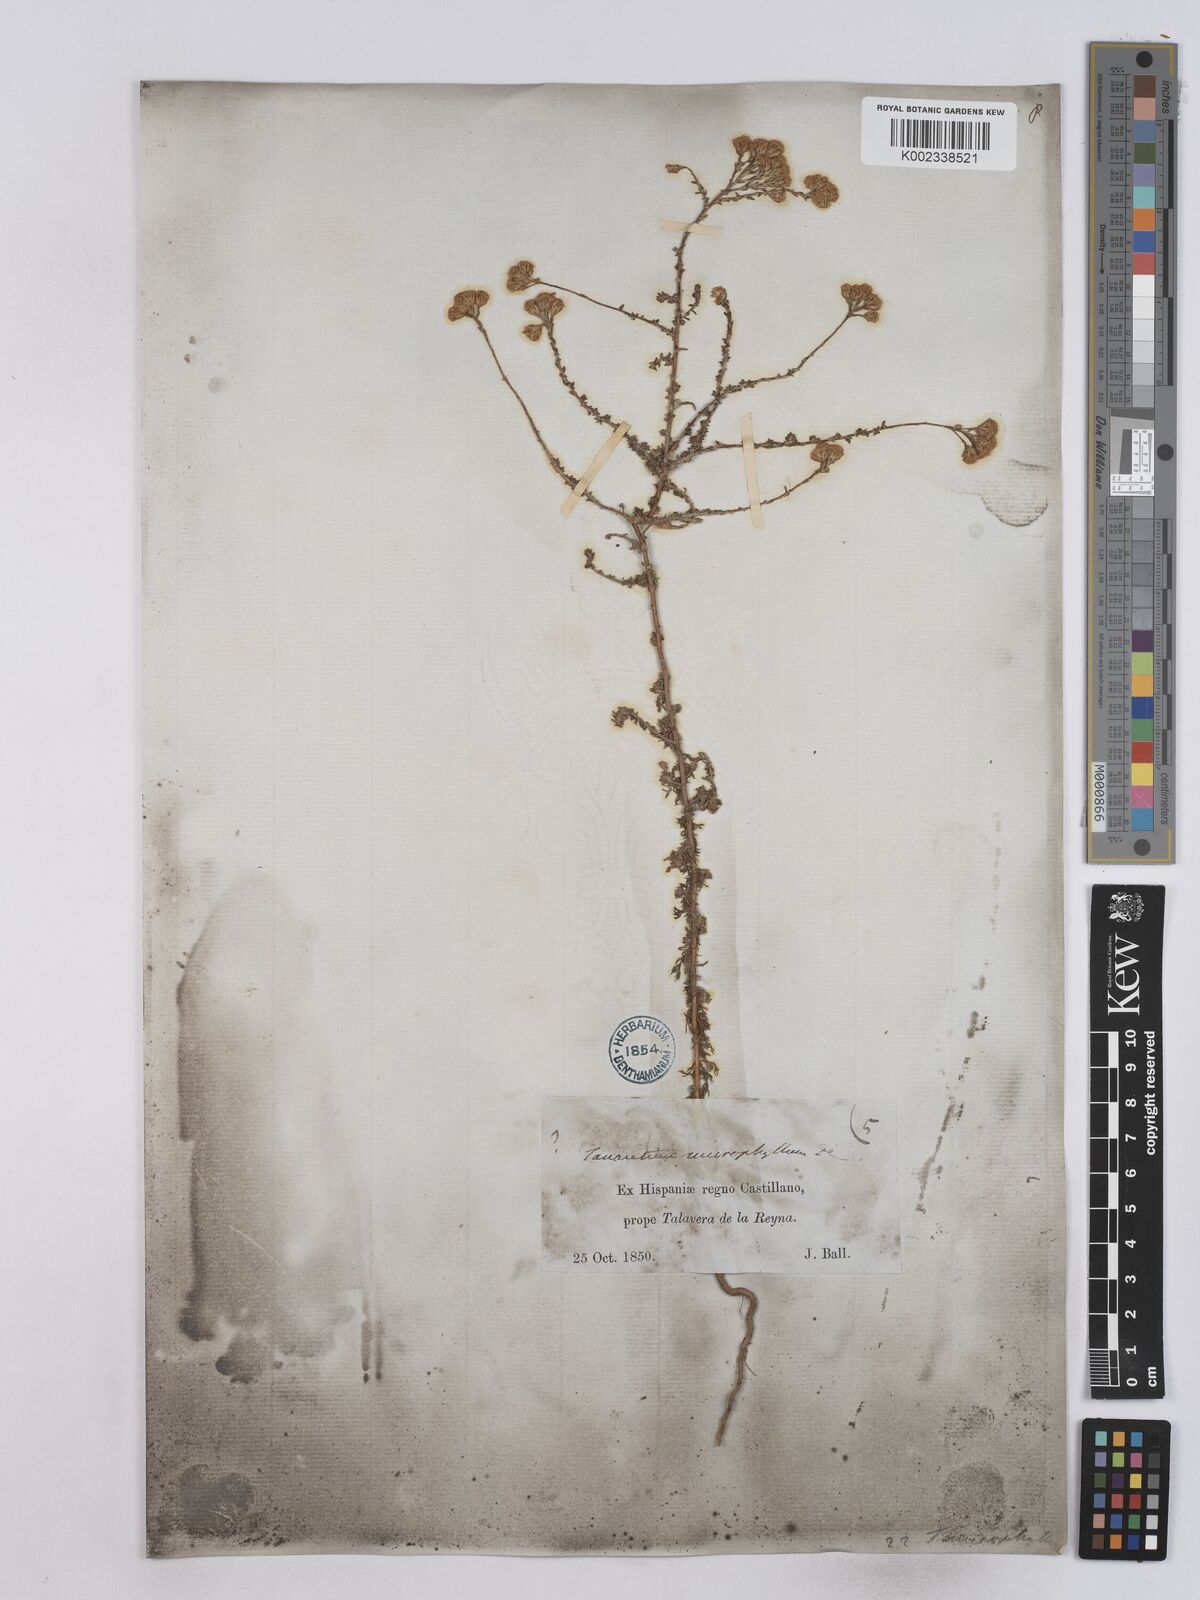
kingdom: Plantae
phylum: Tracheophyta
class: Magnoliopsida
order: Asterales
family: Asteraceae
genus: Vogtia
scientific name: Vogtia microphylla
